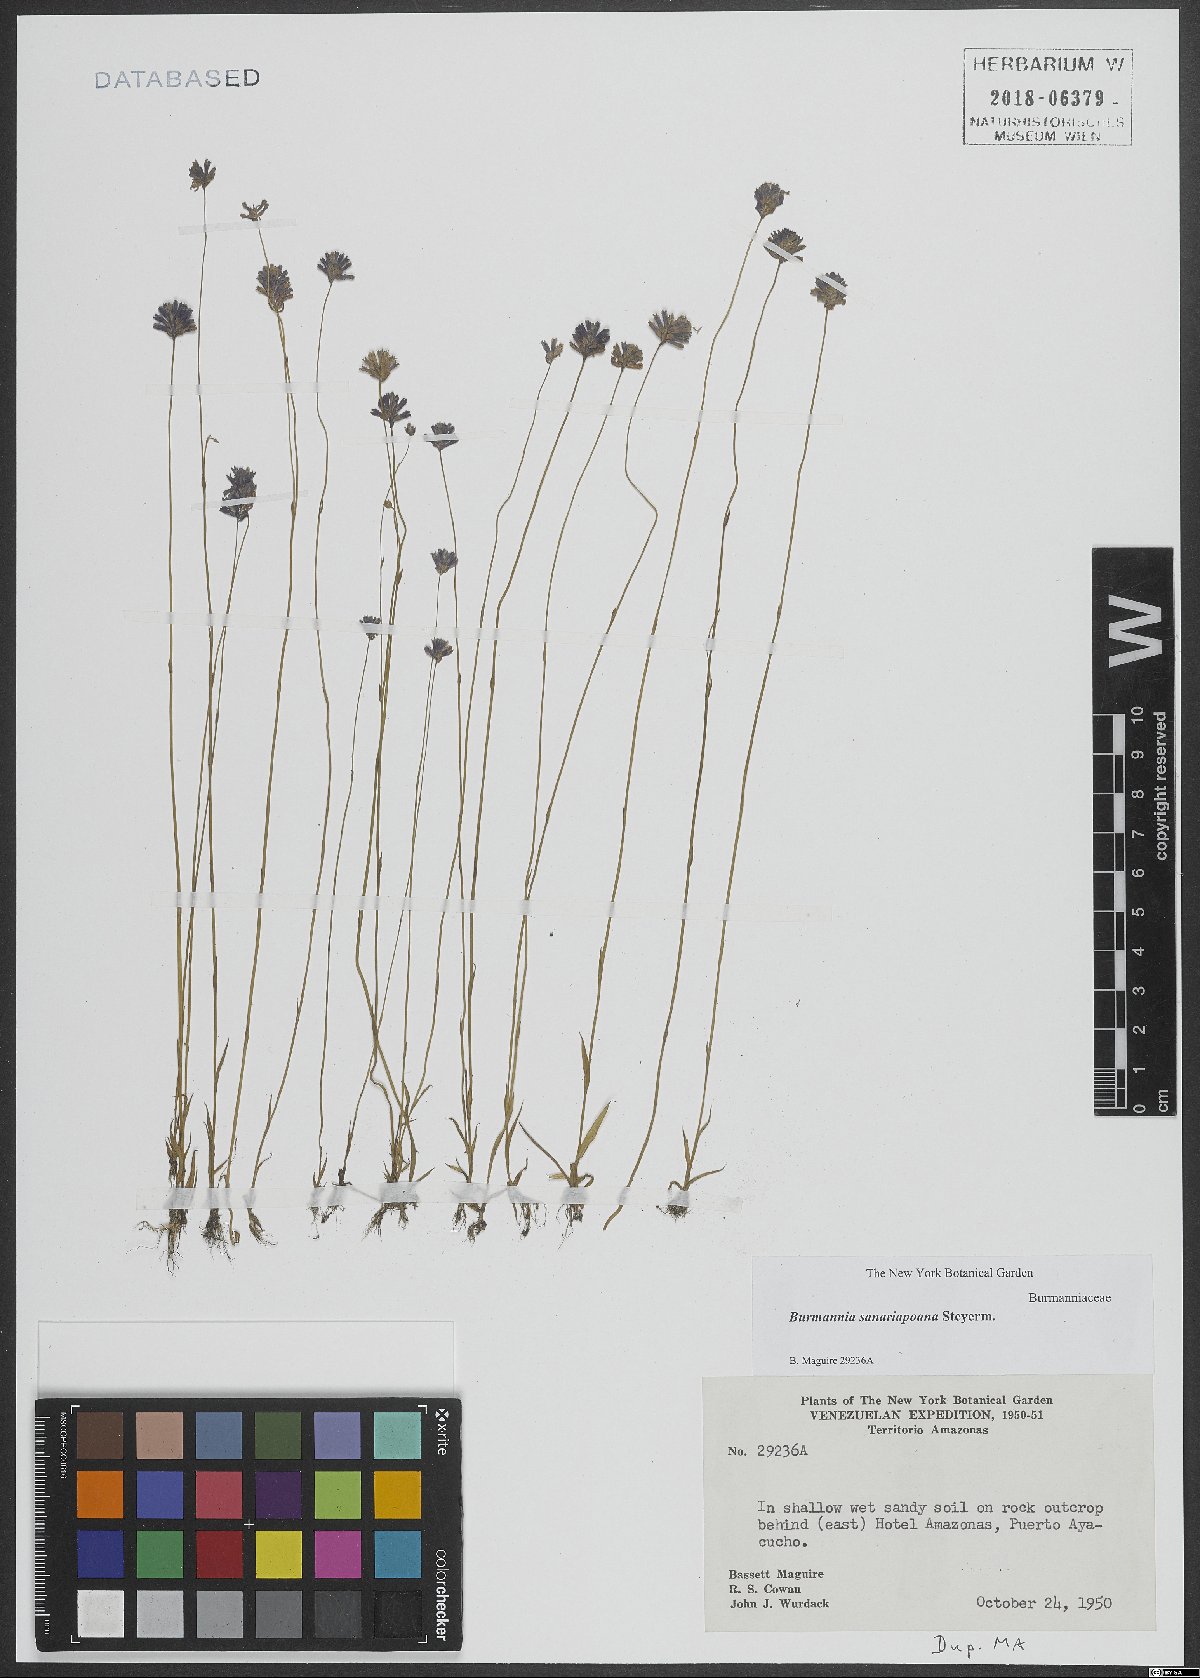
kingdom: Plantae
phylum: Tracheophyta
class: Liliopsida
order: Dioscoreales
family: Burmanniaceae
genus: Burmannia
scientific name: Burmannia sanariapoana
